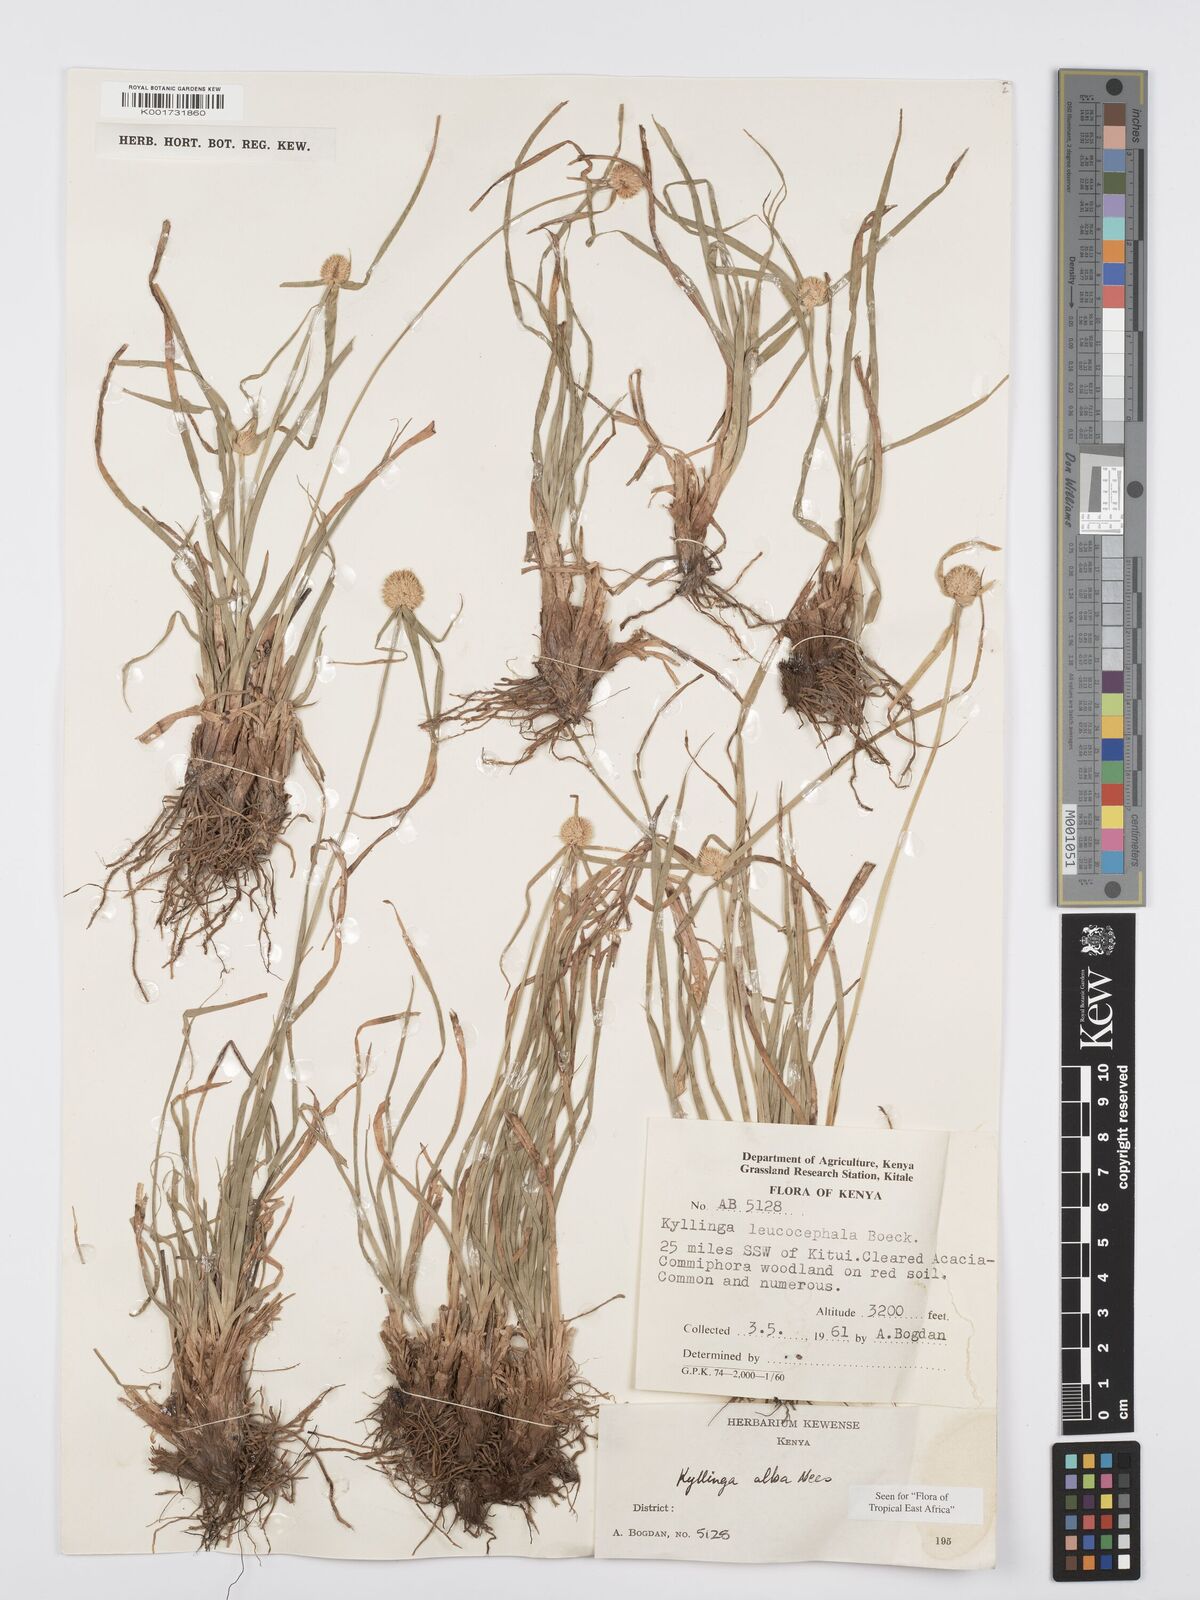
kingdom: Plantae
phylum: Tracheophyta
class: Liliopsida
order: Poales
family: Cyperaceae
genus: Cyperus
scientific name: Cyperus
